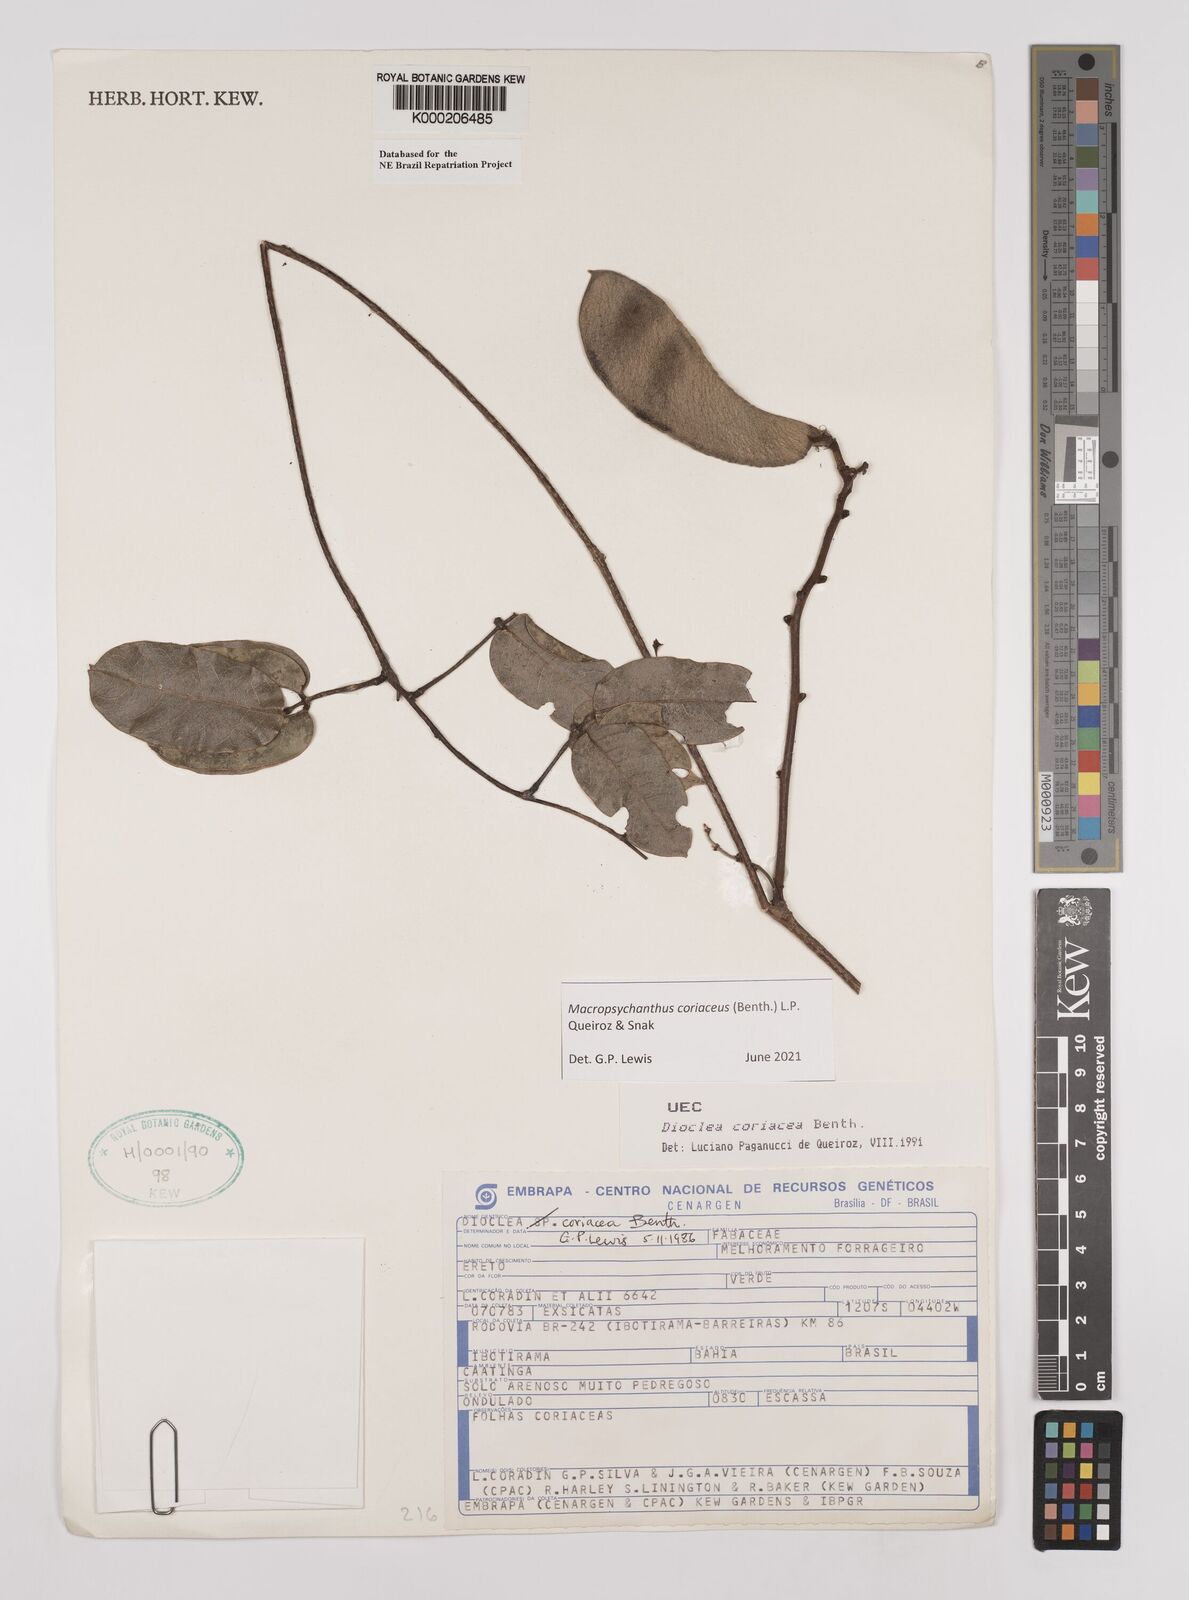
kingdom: Plantae
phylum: Tracheophyta
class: Magnoliopsida
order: Fabales
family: Fabaceae
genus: Macropsychanthus
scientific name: Macropsychanthus coriaceus
